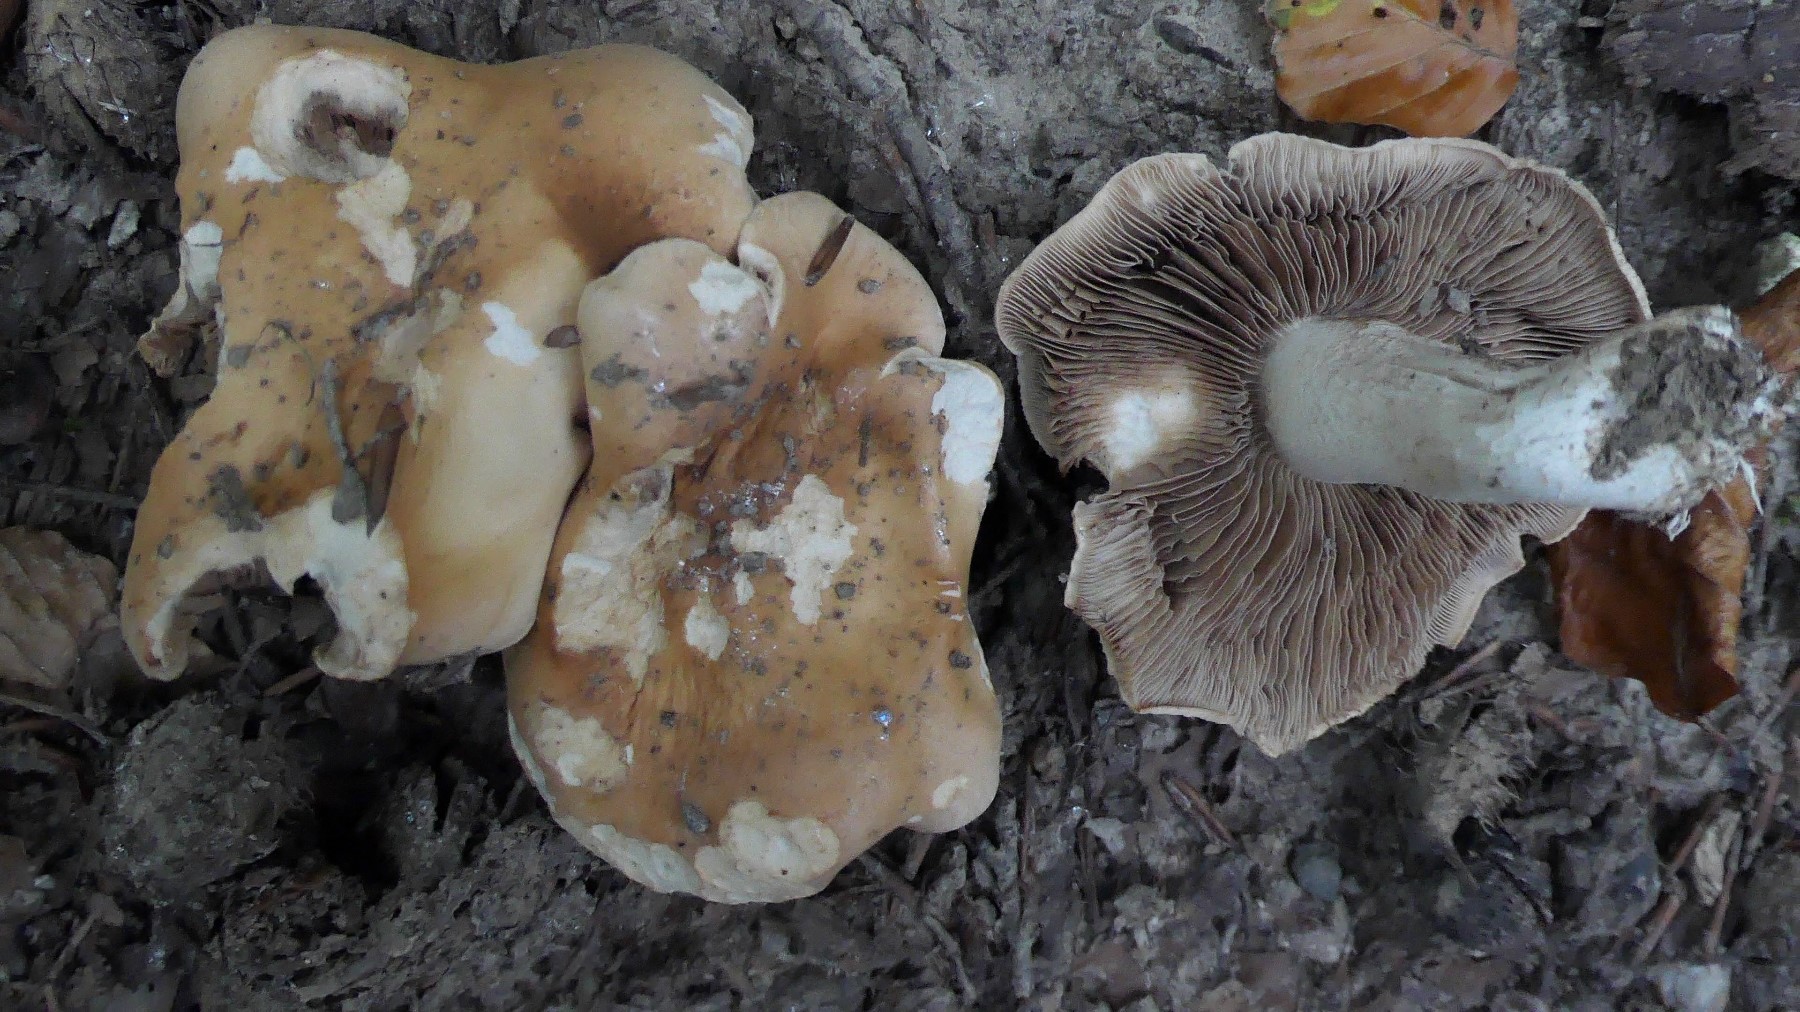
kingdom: Fungi
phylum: Basidiomycota
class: Agaricomycetes
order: Agaricales
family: Hymenogastraceae
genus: Hebeloma
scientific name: Hebeloma sinapizans
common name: ræddike-tåreblad
